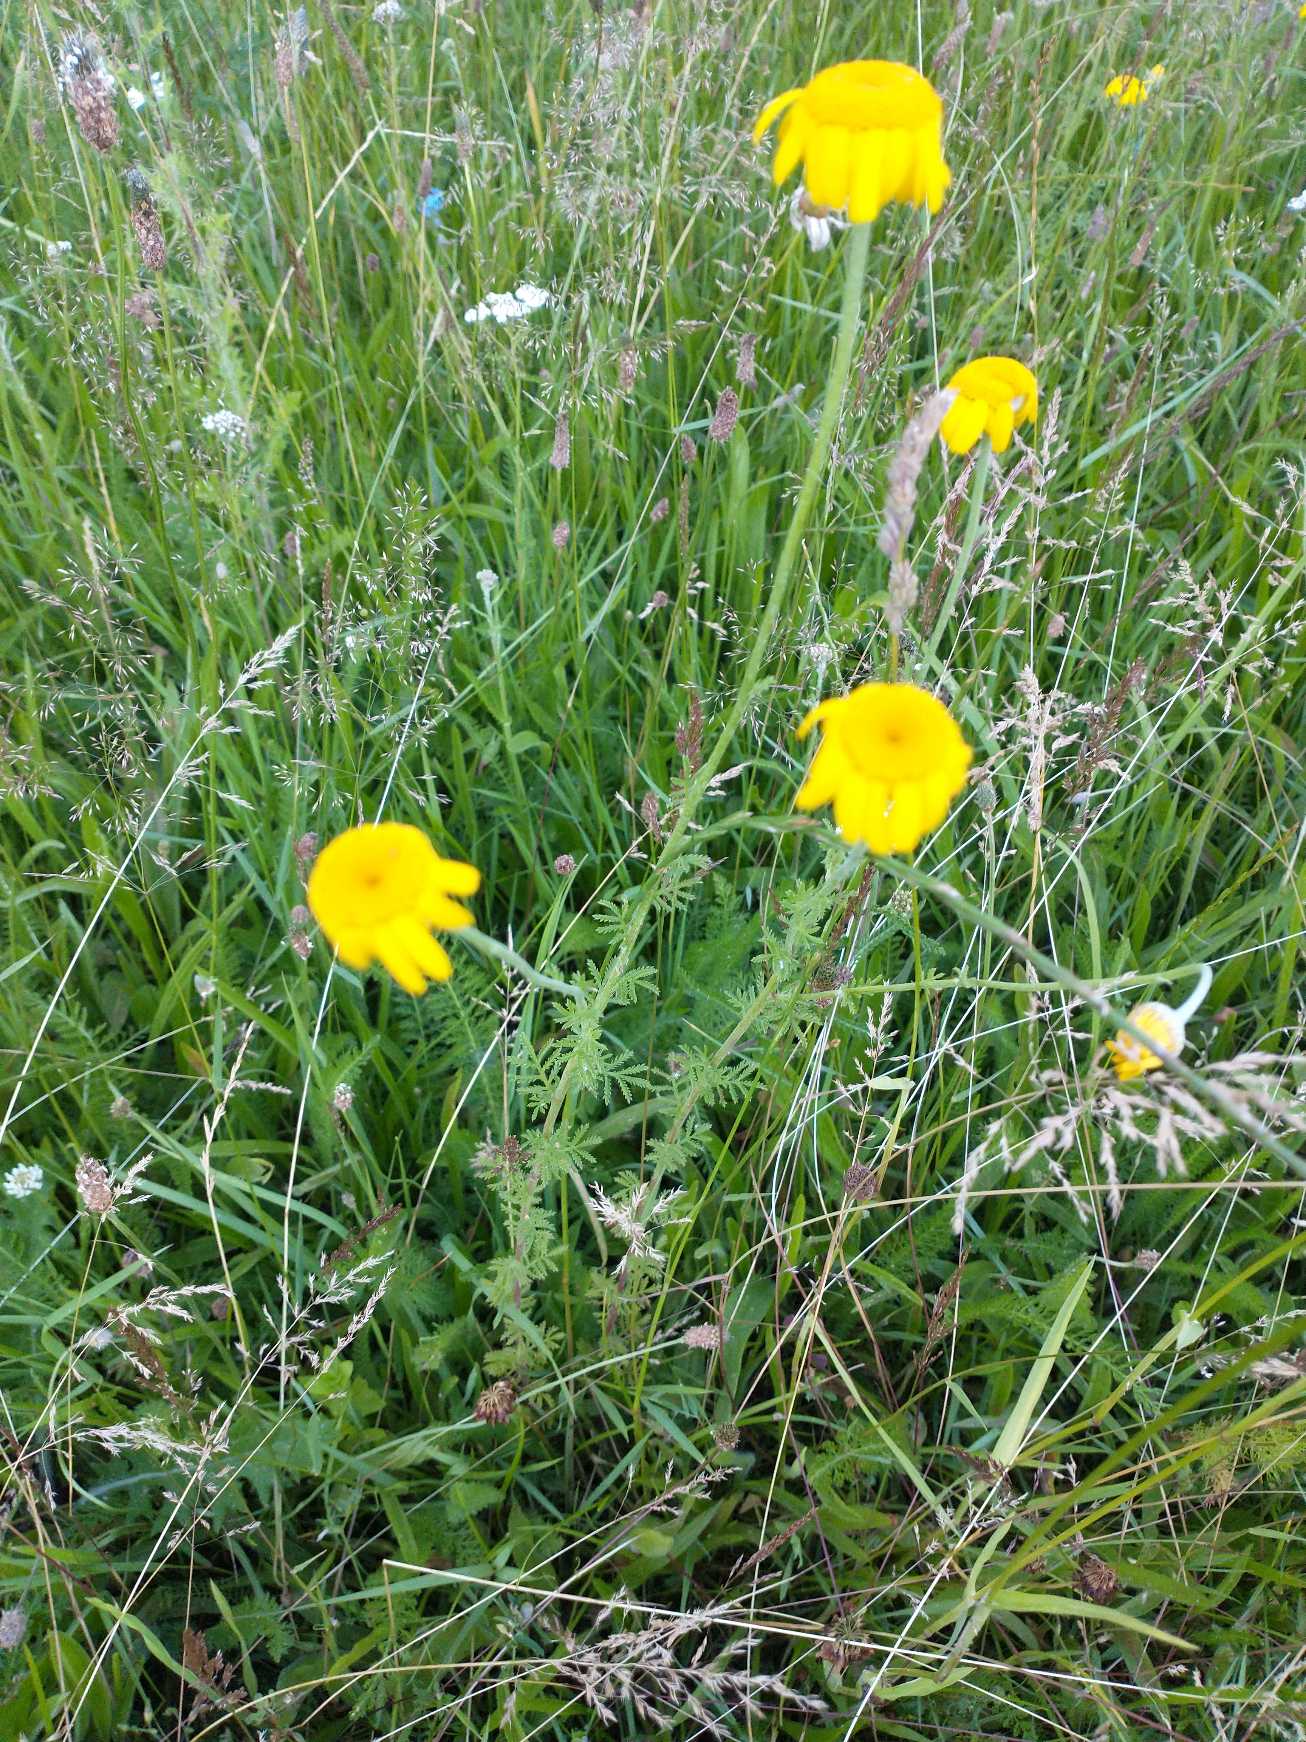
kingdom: Plantae
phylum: Tracheophyta
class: Magnoliopsida
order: Asterales
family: Asteraceae
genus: Cota
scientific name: Cota tinctoria
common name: Farve-gåseurt
